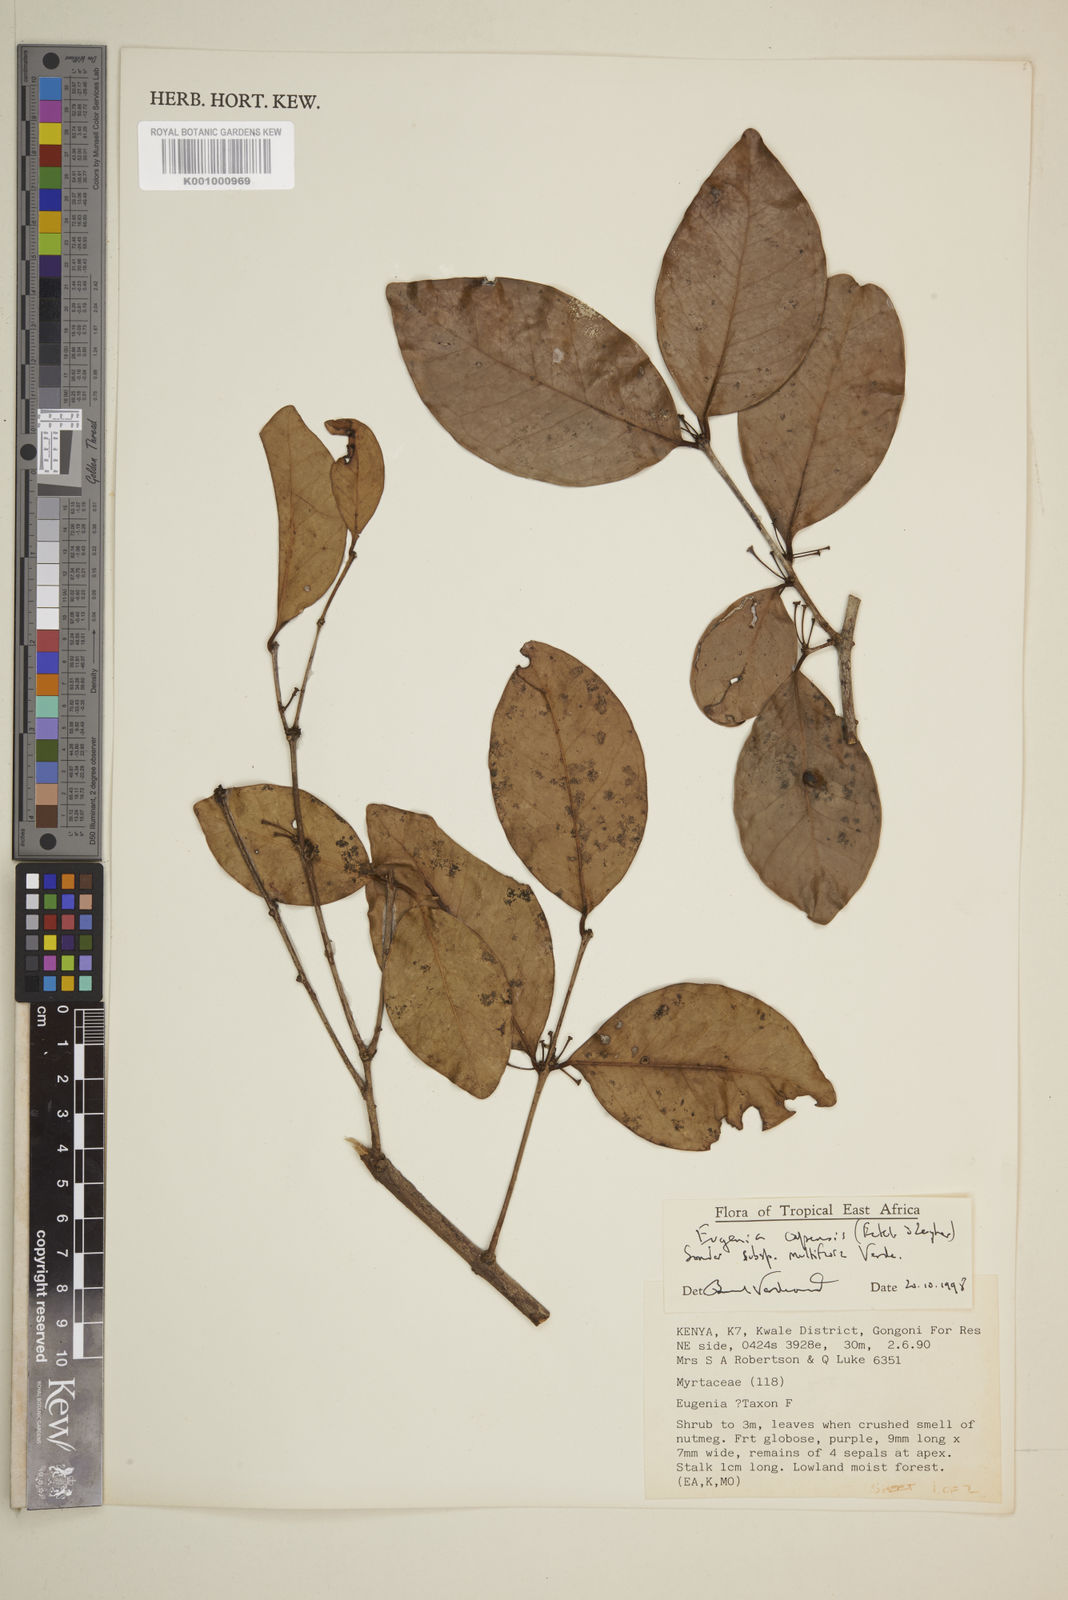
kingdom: Plantae
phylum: Tracheophyta
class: Magnoliopsida
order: Myrtales
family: Myrtaceae
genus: Eugenia
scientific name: Eugenia capensis
